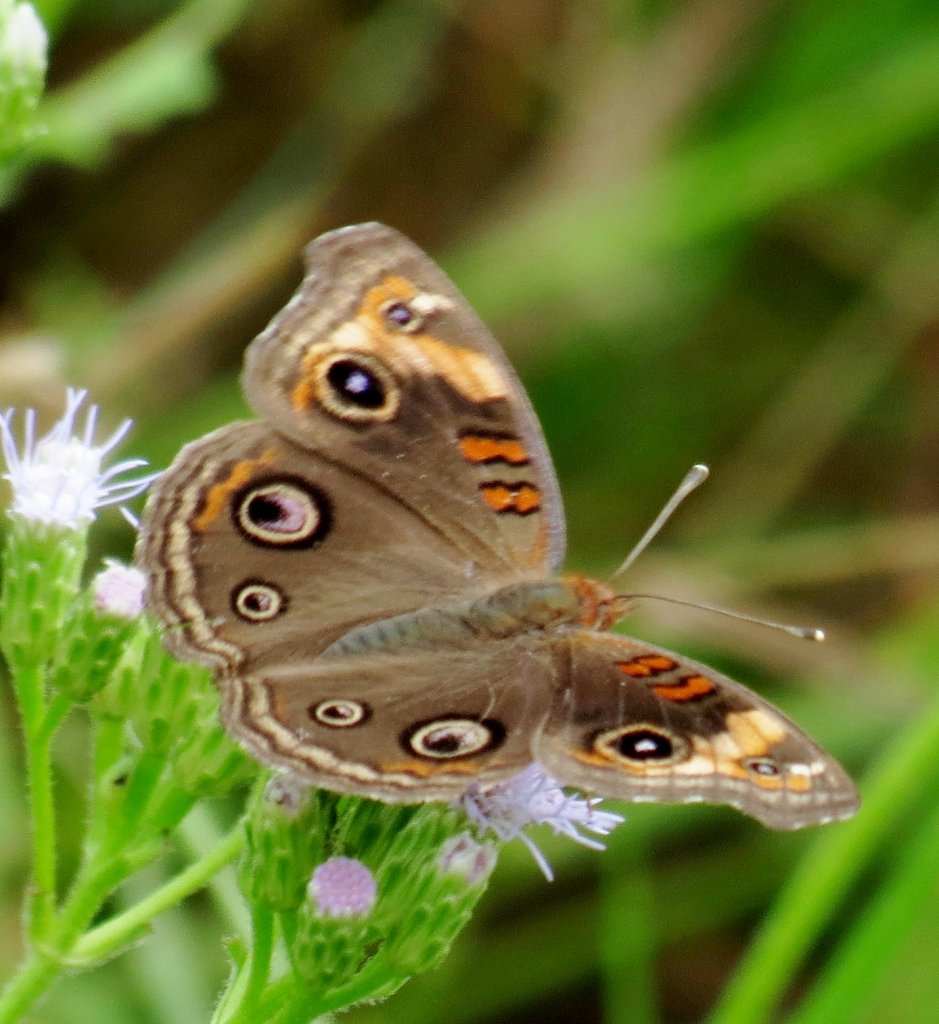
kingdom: Animalia
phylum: Arthropoda
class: Insecta
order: Lepidoptera
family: Nymphalidae
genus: Junonia
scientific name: Junonia lavinia
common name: Tropical Buckeye
